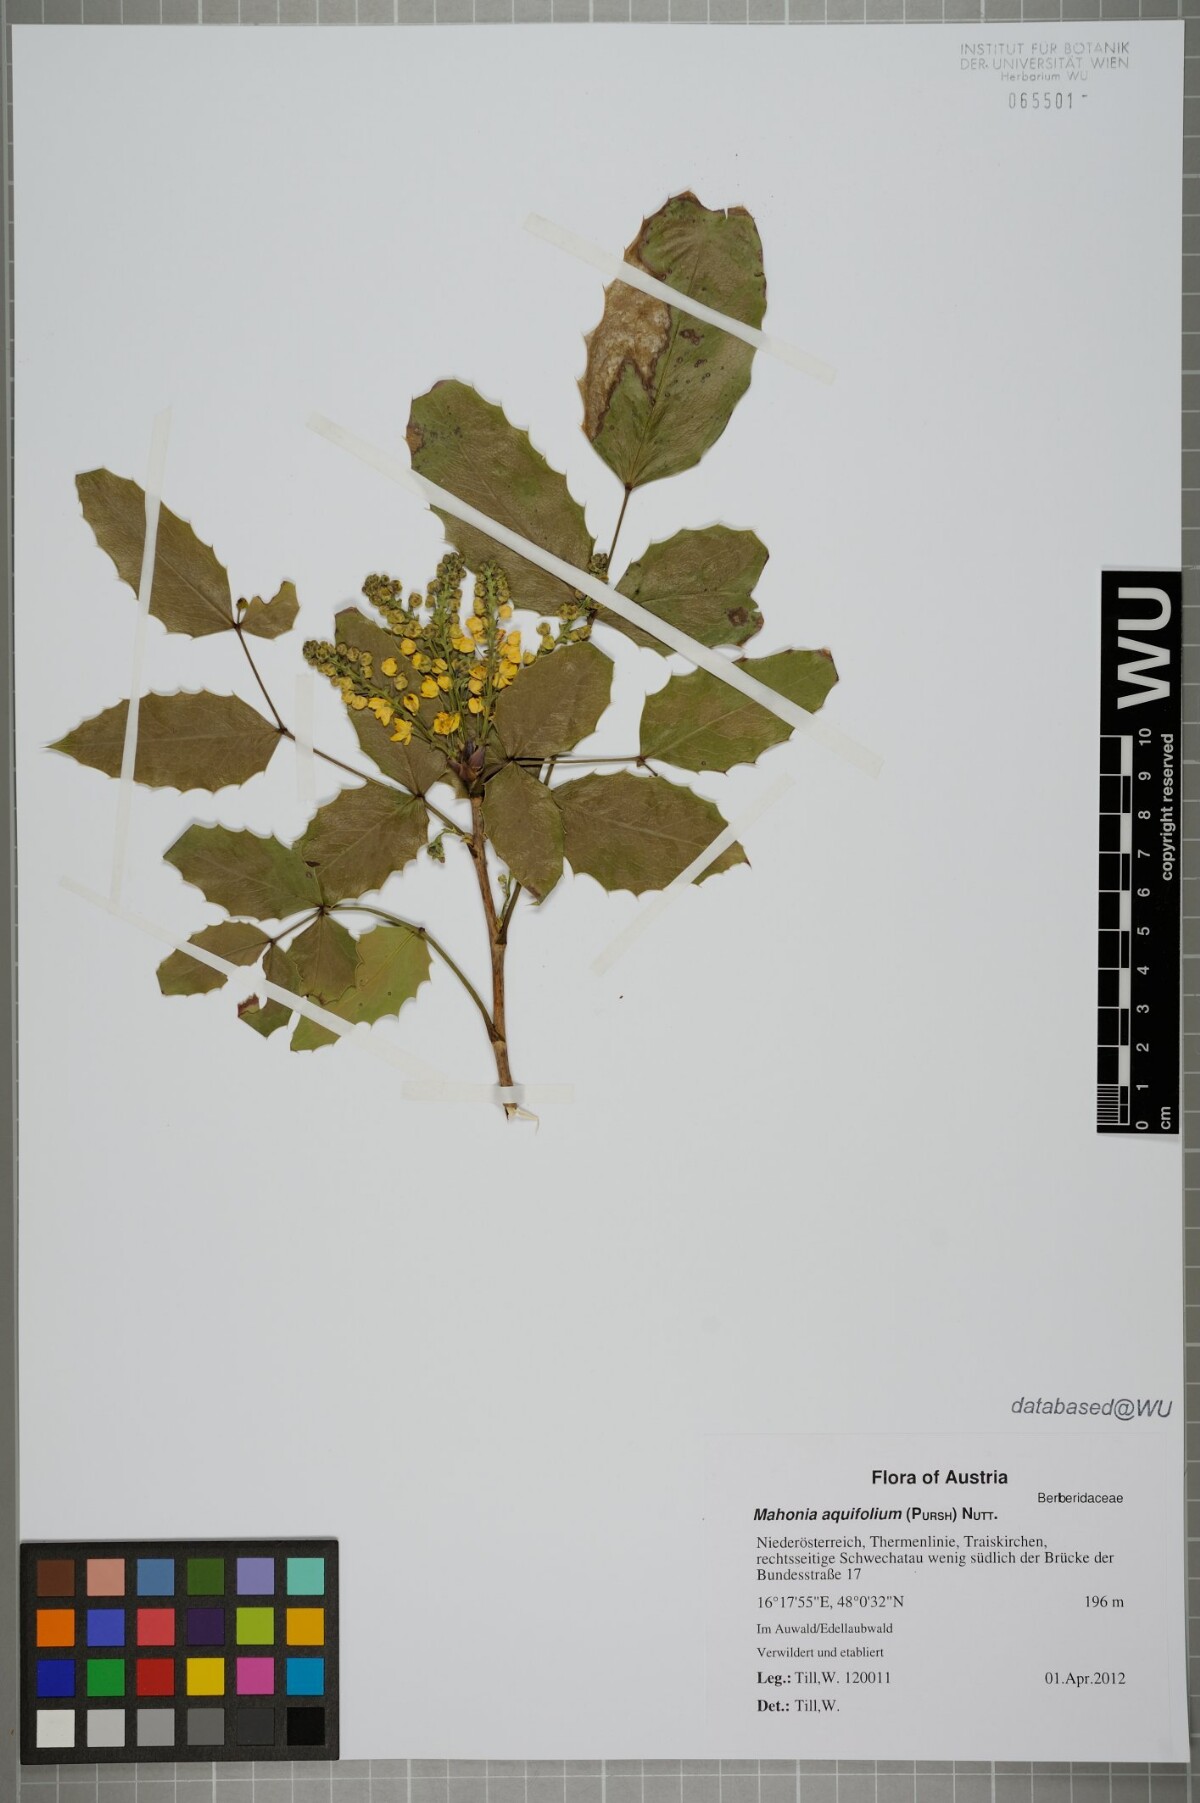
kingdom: Plantae
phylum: Tracheophyta
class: Magnoliopsida
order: Ranunculales
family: Berberidaceae
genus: Mahonia
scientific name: Mahonia aquifolium
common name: Oregon-grape
